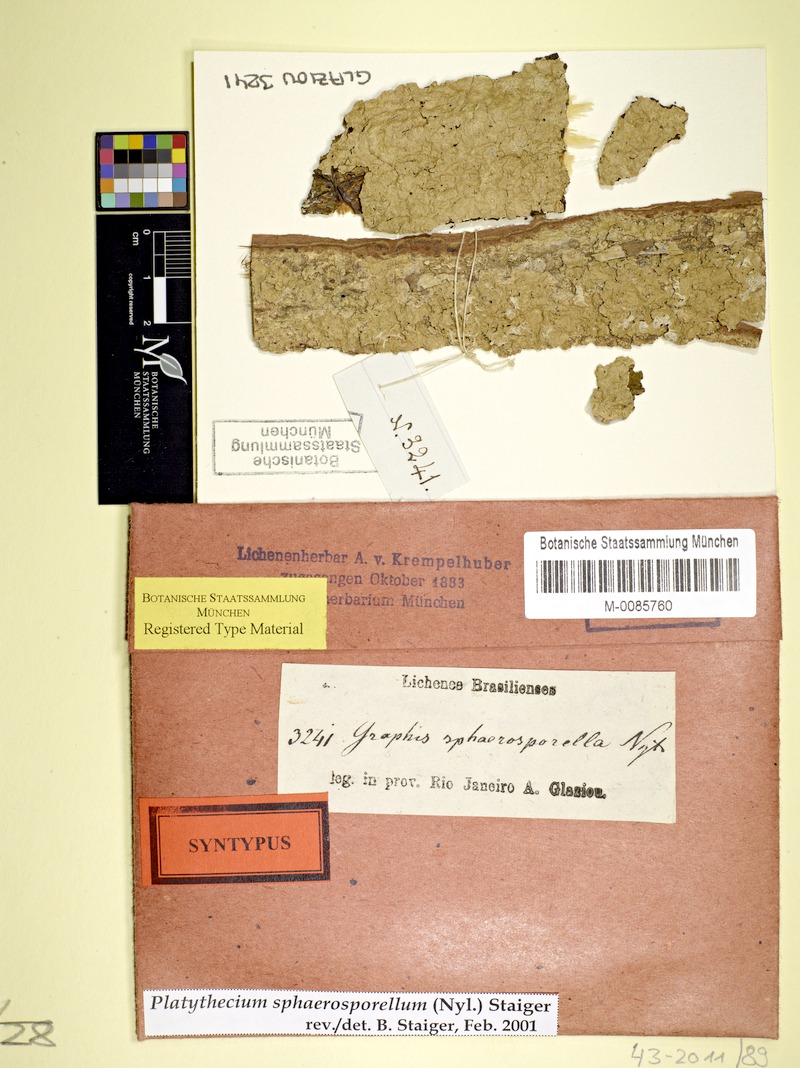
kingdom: Fungi
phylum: Ascomycota
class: Lecanoromycetes
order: Ostropales
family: Graphidaceae
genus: Platythecium
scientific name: Platythecium sphaerosporellum
